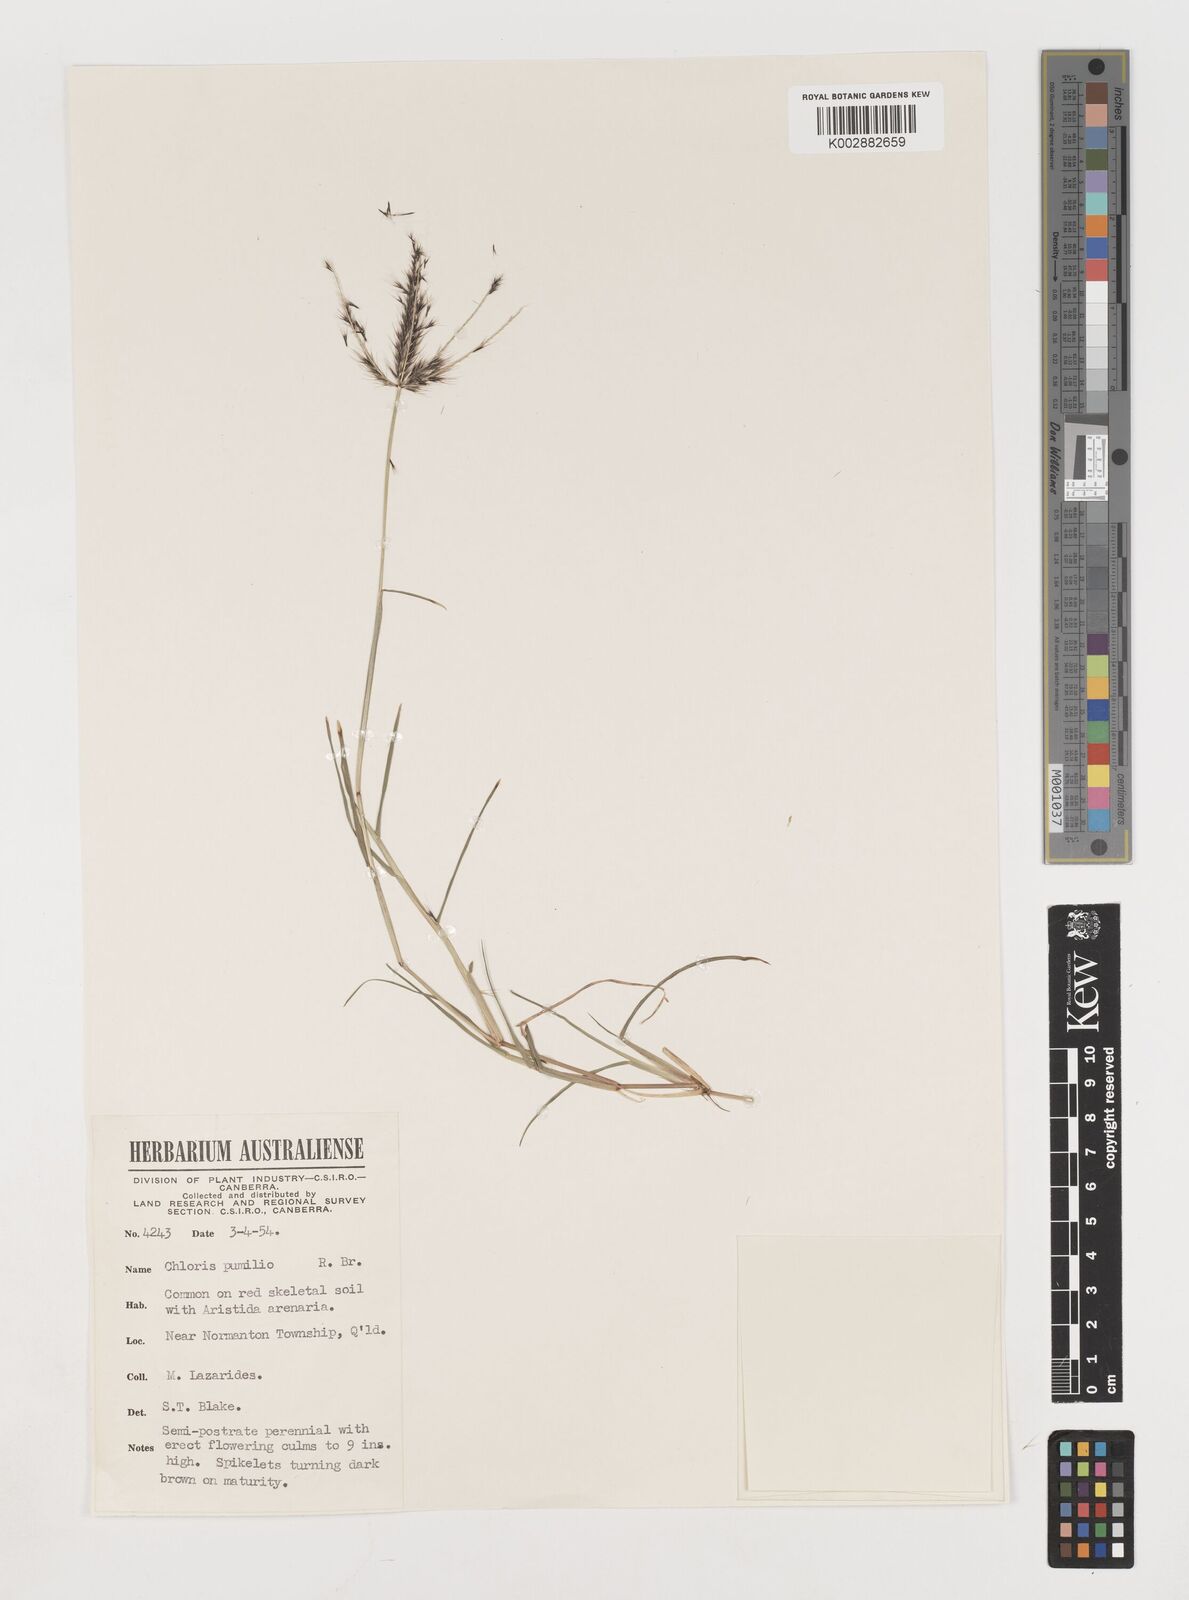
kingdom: Plantae
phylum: Tracheophyta
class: Liliopsida
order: Poales
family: Poaceae
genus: Chloris
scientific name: Chloris lobata
